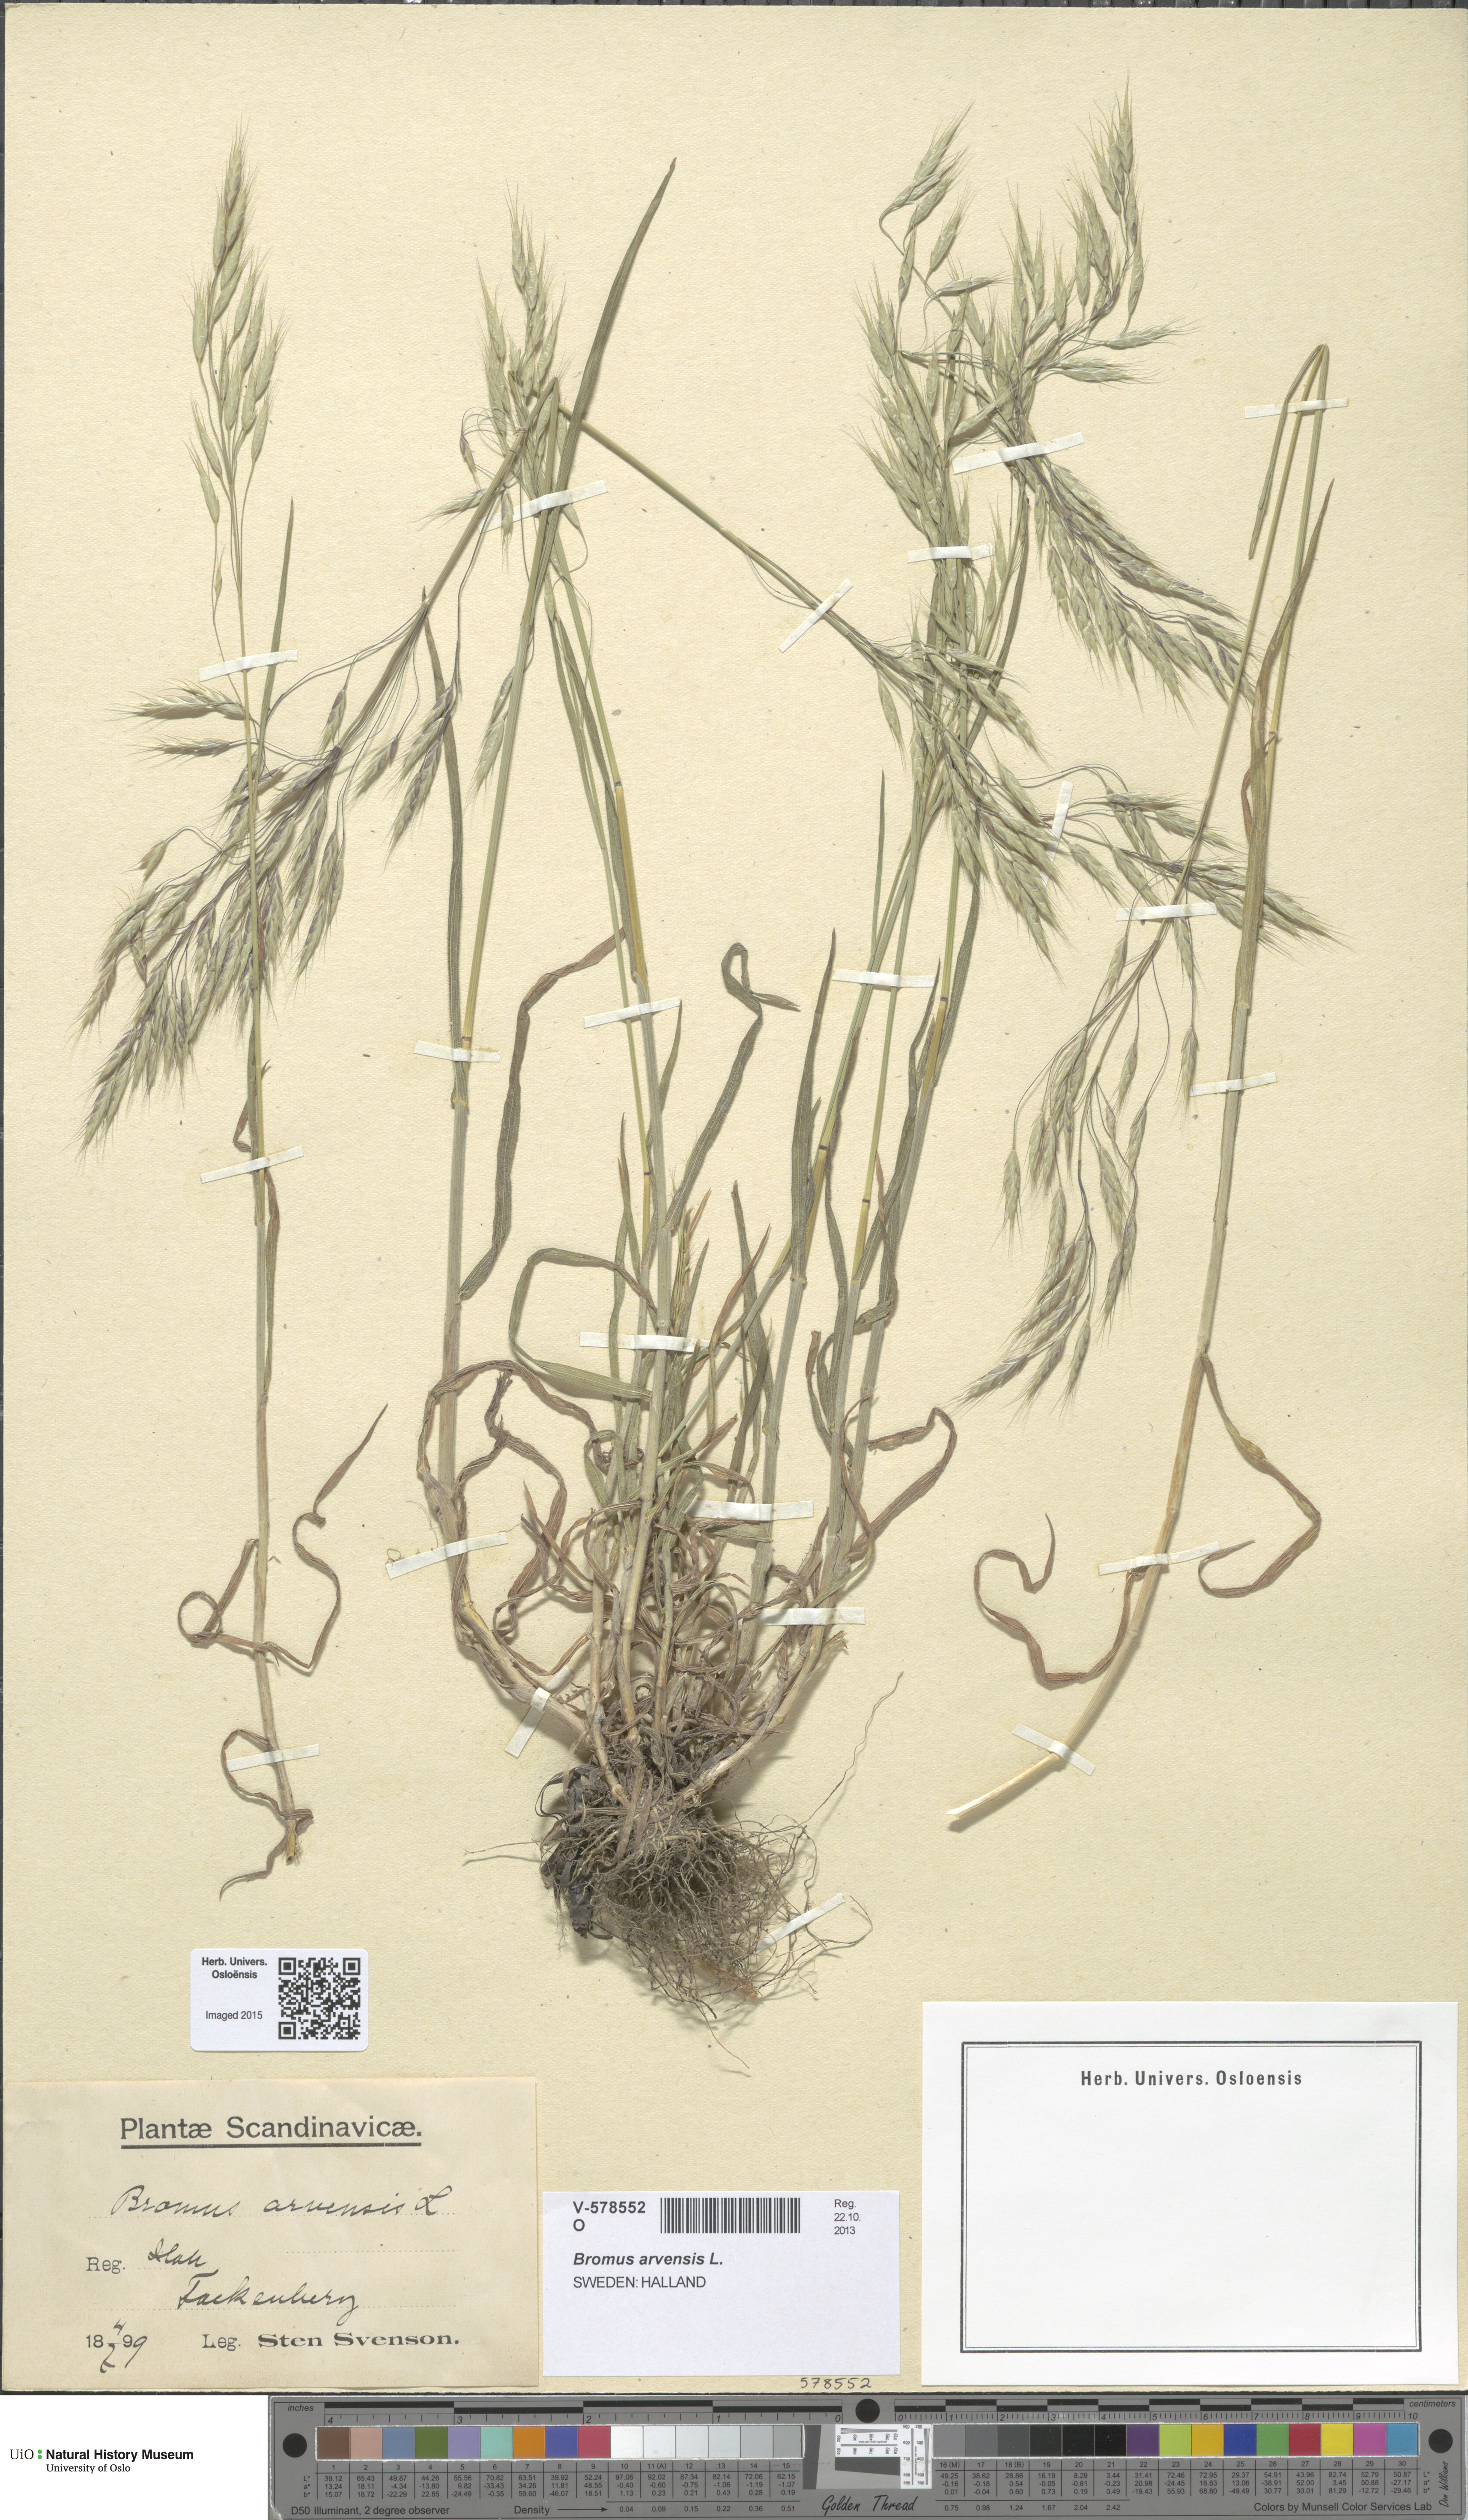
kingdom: Plantae
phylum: Tracheophyta
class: Liliopsida
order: Poales
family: Poaceae
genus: Bromus
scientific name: Bromus arvensis
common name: Field brome
